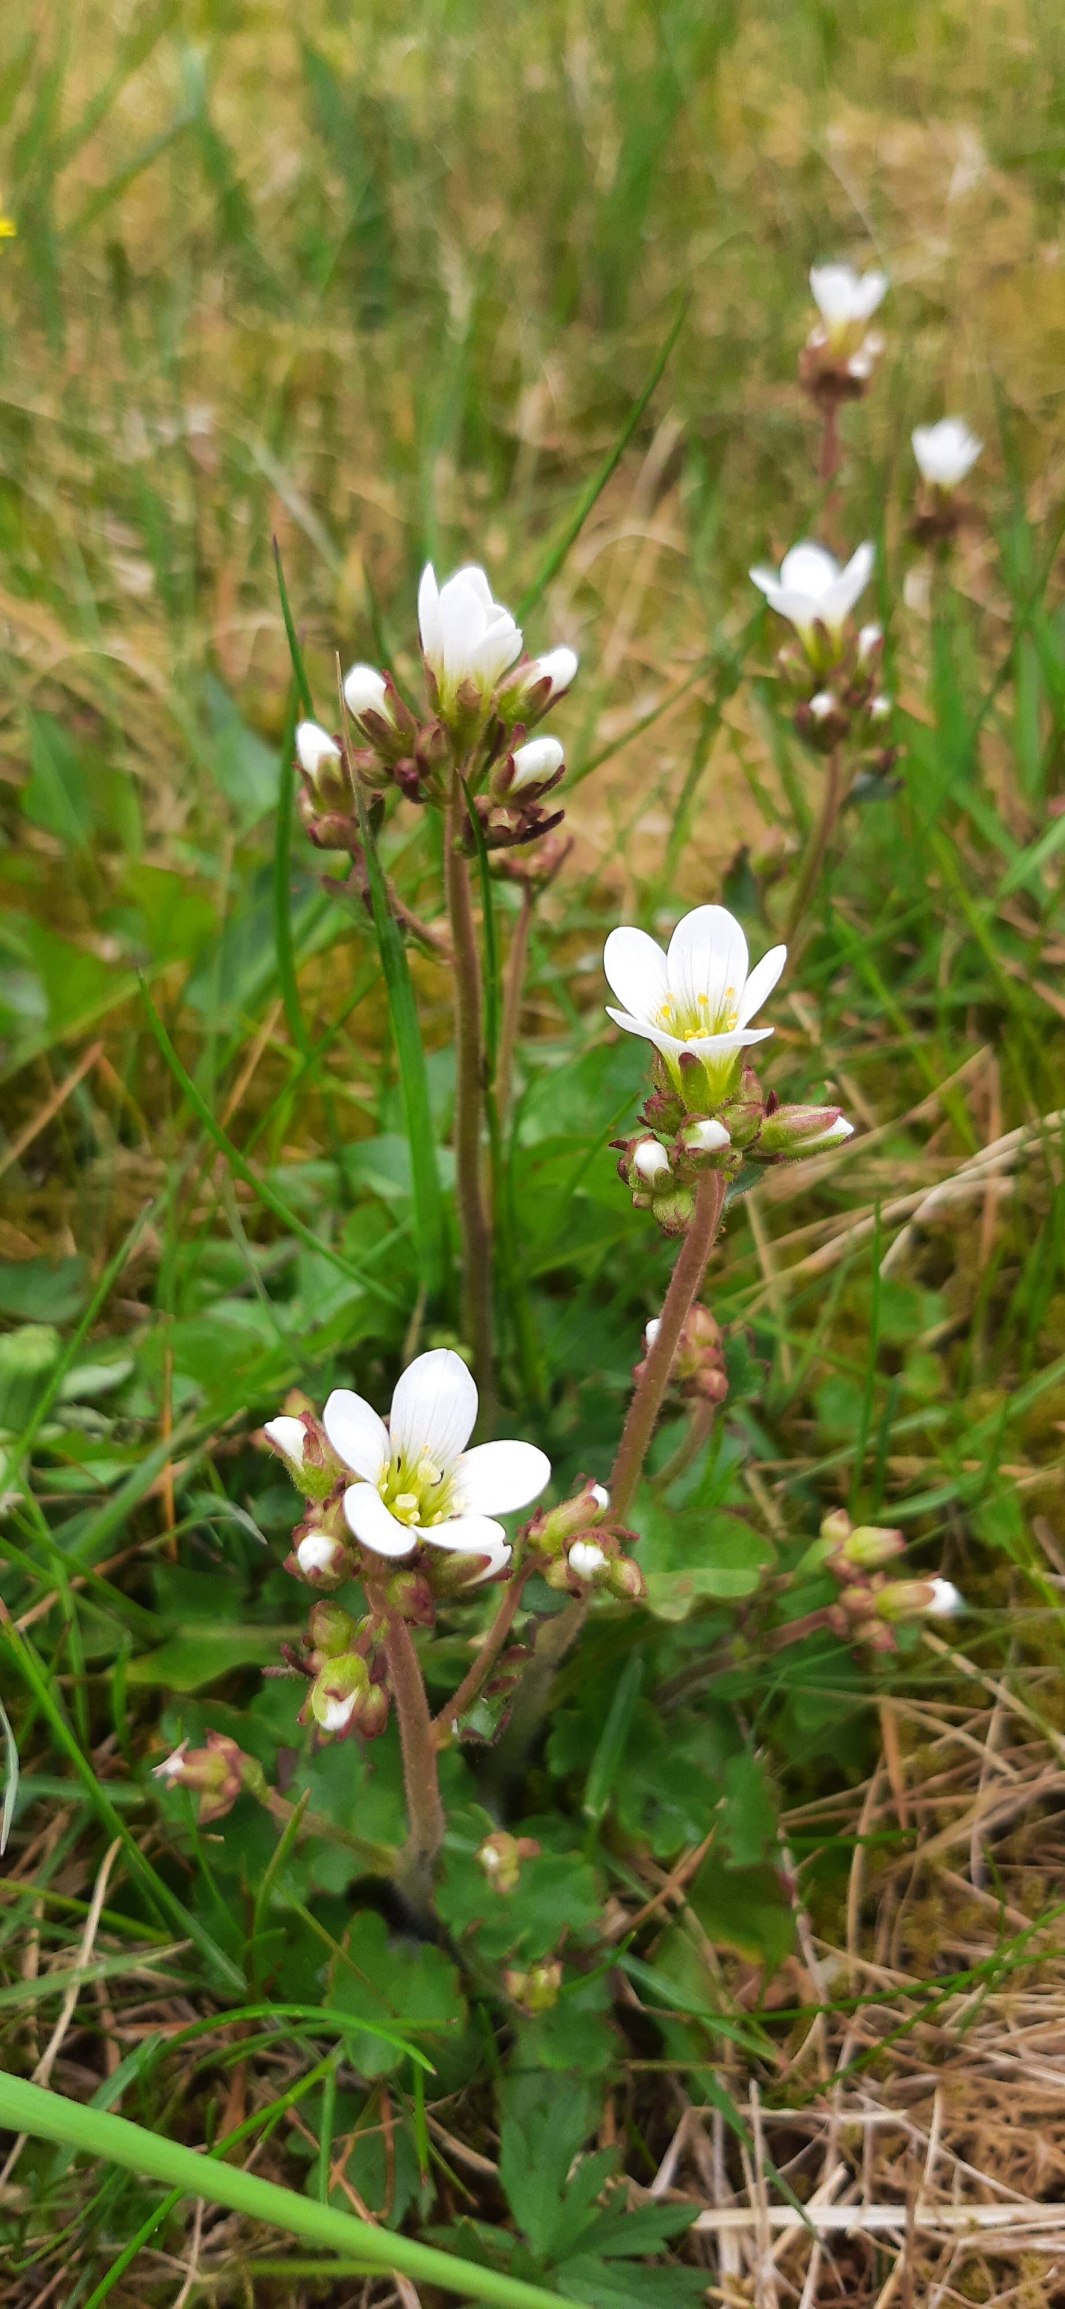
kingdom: Plantae
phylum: Tracheophyta
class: Magnoliopsida
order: Saxifragales
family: Saxifragaceae
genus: Saxifraga
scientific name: Saxifraga granulata
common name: Kornet stenbræk
